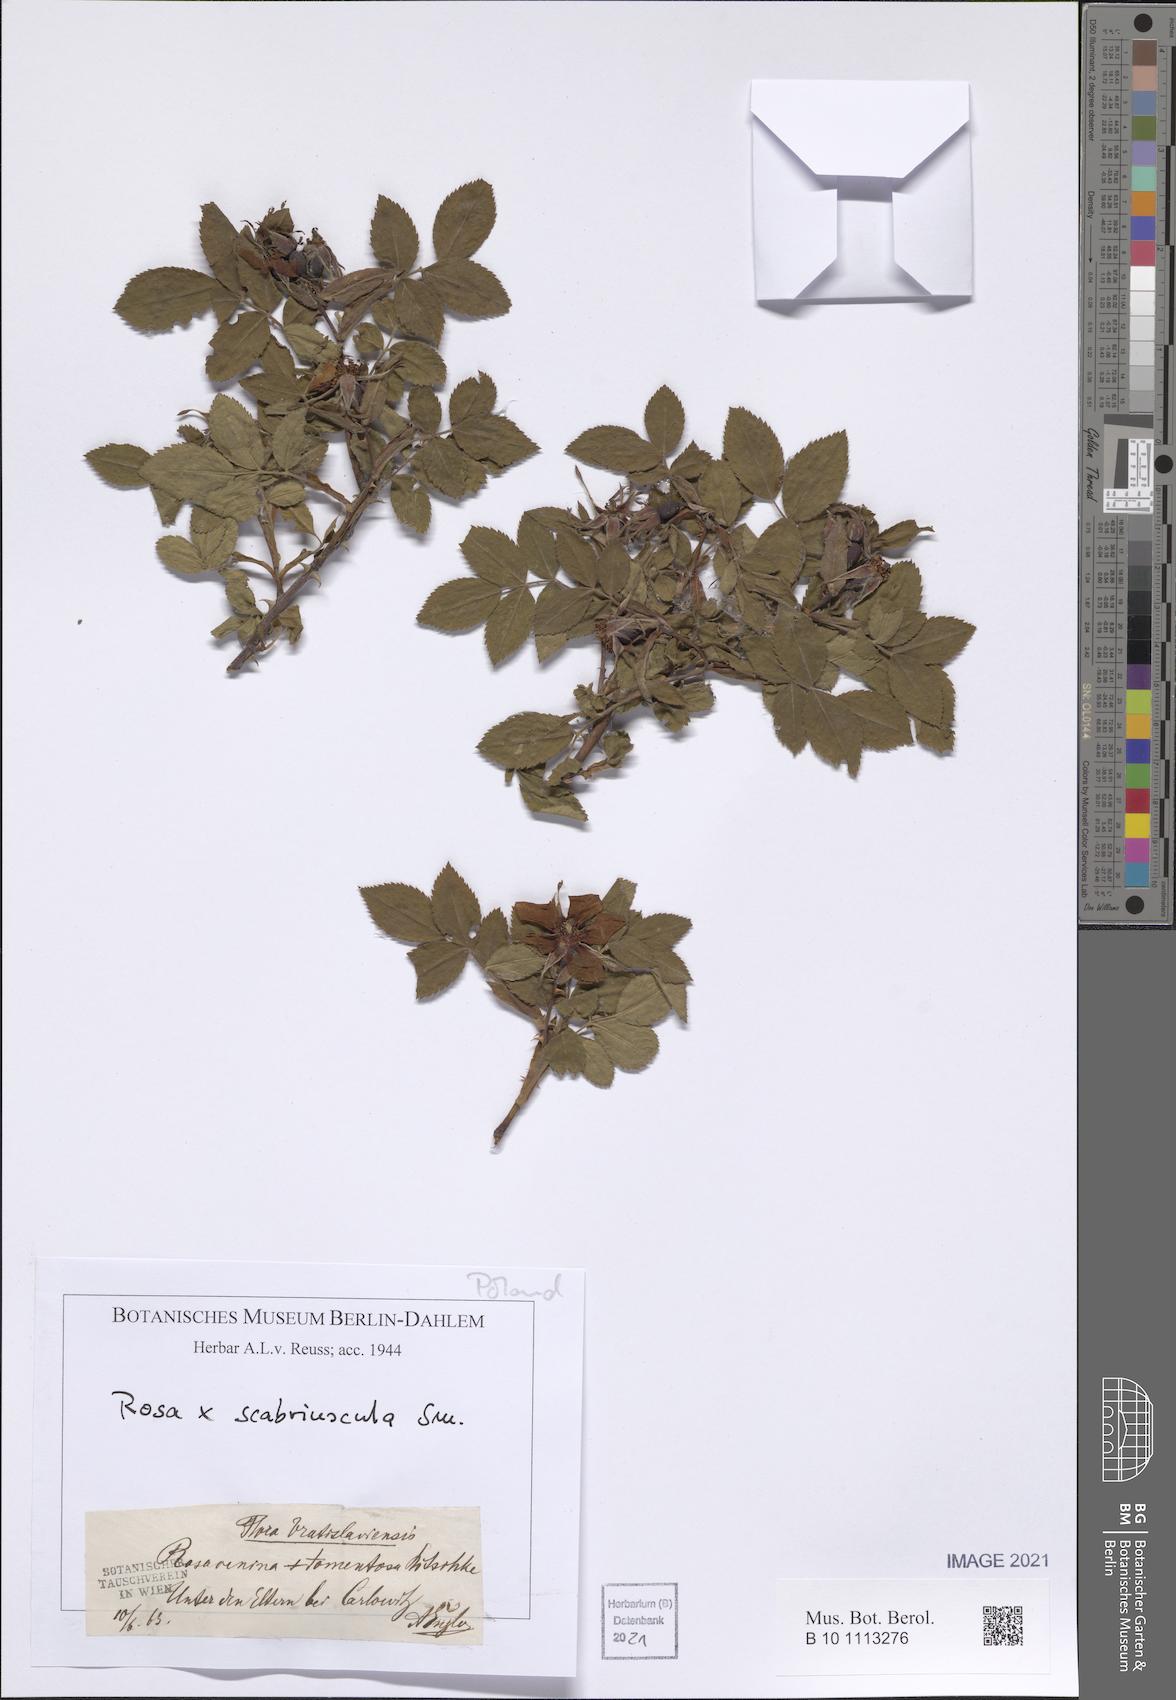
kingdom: Plantae
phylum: Tracheophyta
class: Magnoliopsida
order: Rosales
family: Rosaceae
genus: Rosa
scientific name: Rosa scabriuscula
